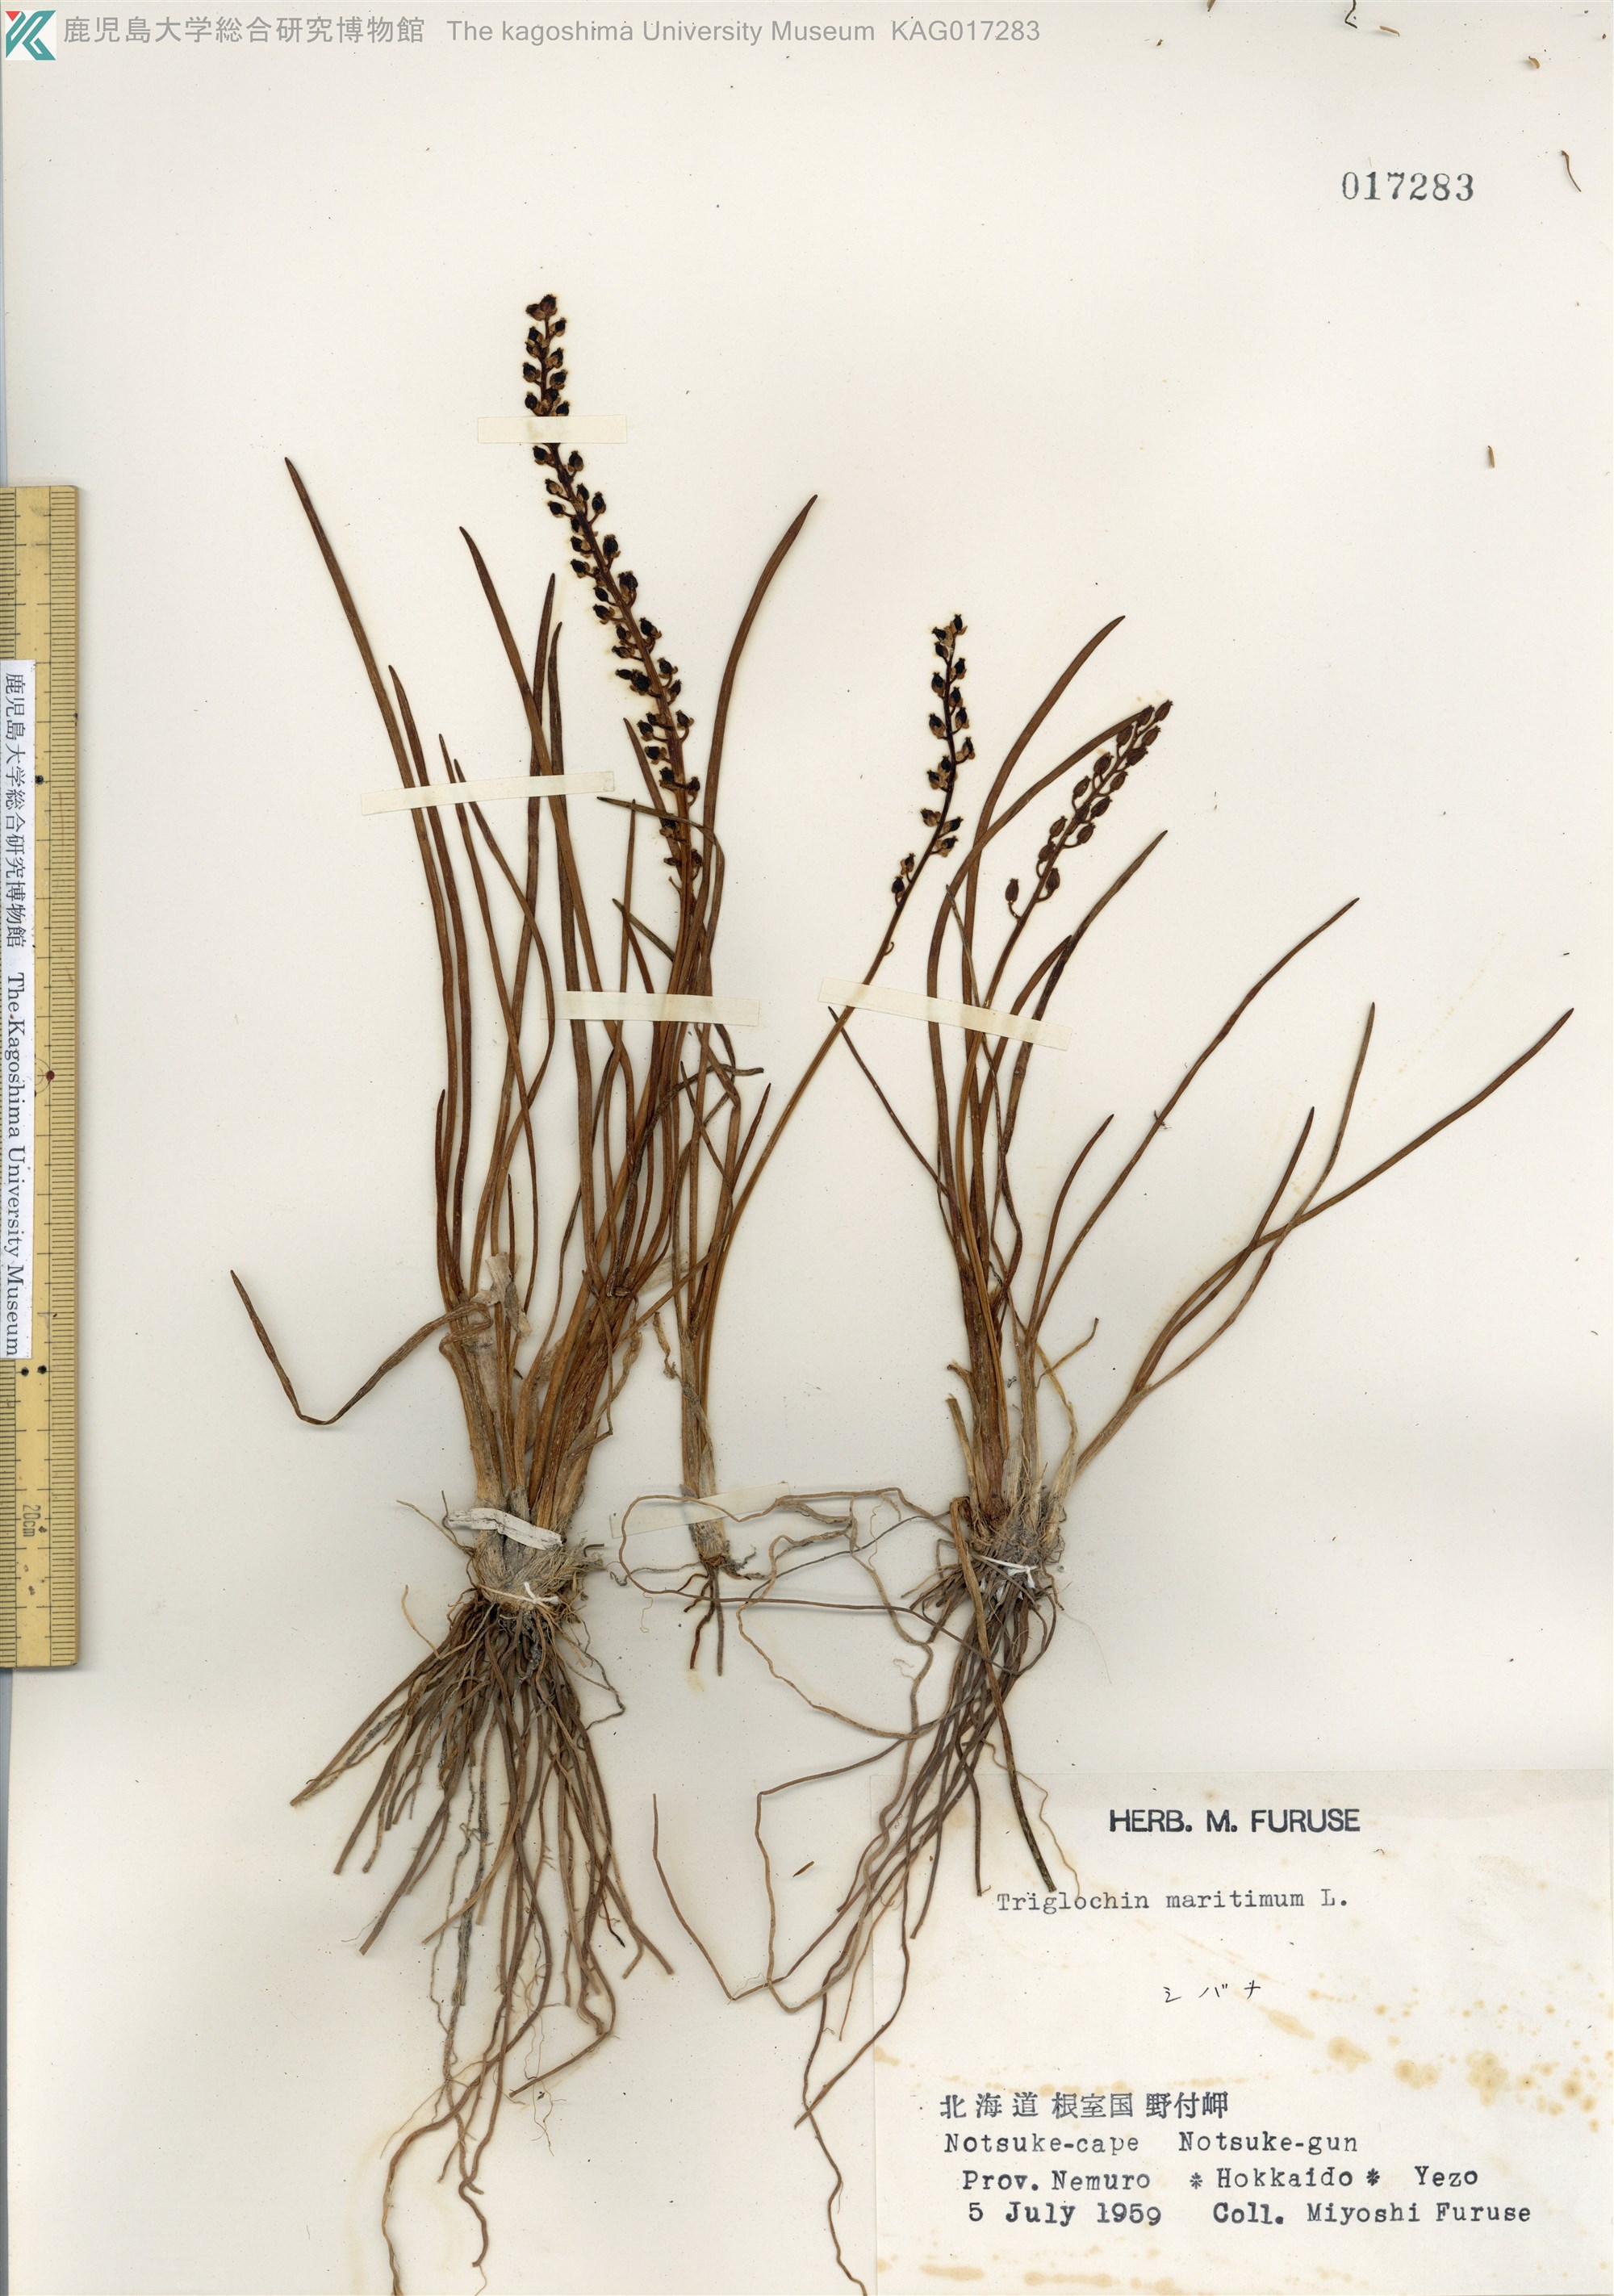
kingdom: Plantae
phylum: Tracheophyta
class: Liliopsida
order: Alismatales
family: Juncaginaceae
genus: Triglochin
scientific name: Triglochin maritima
